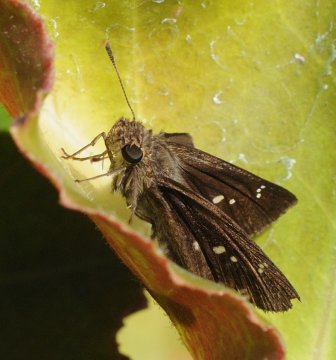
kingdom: Animalia
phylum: Arthropoda
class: Insecta
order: Lepidoptera
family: Hesperiidae
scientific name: Hesperiidae
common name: Skippers
